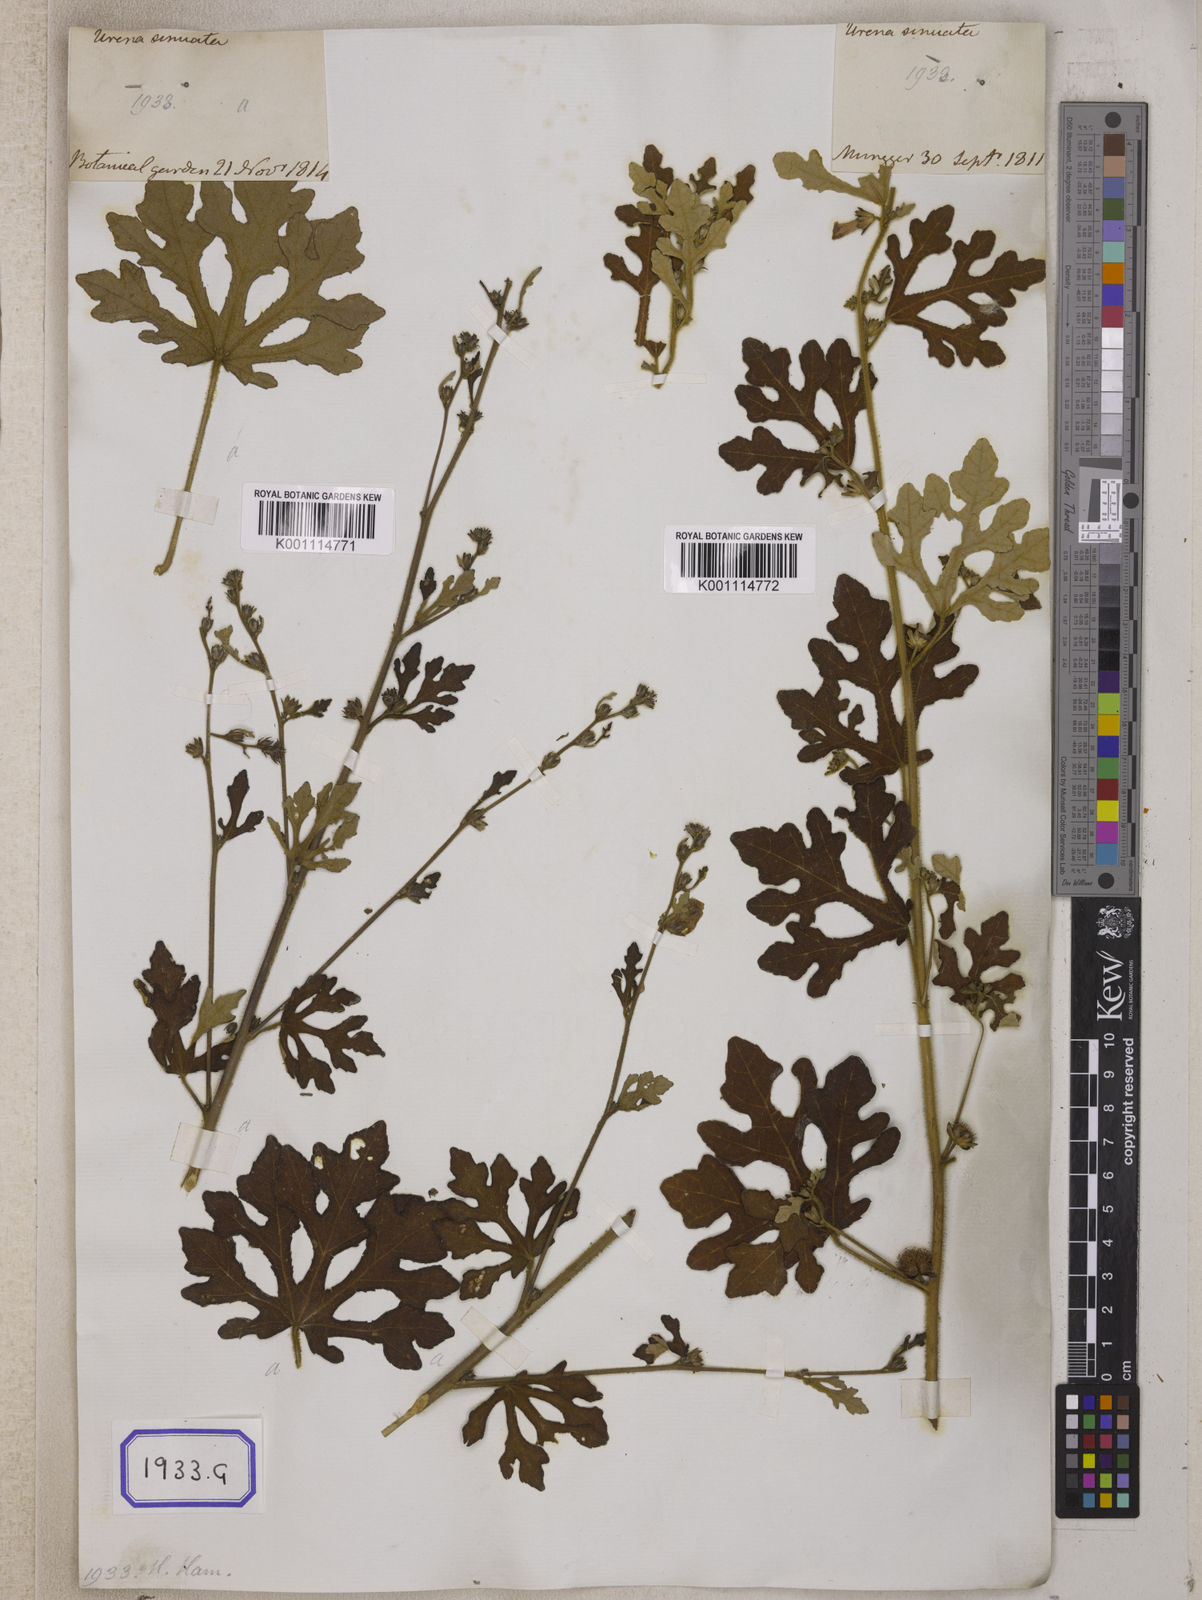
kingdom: Plantae
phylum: Tracheophyta
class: Magnoliopsida
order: Malvales
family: Malvaceae
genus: Urena
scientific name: Urena procumbens
